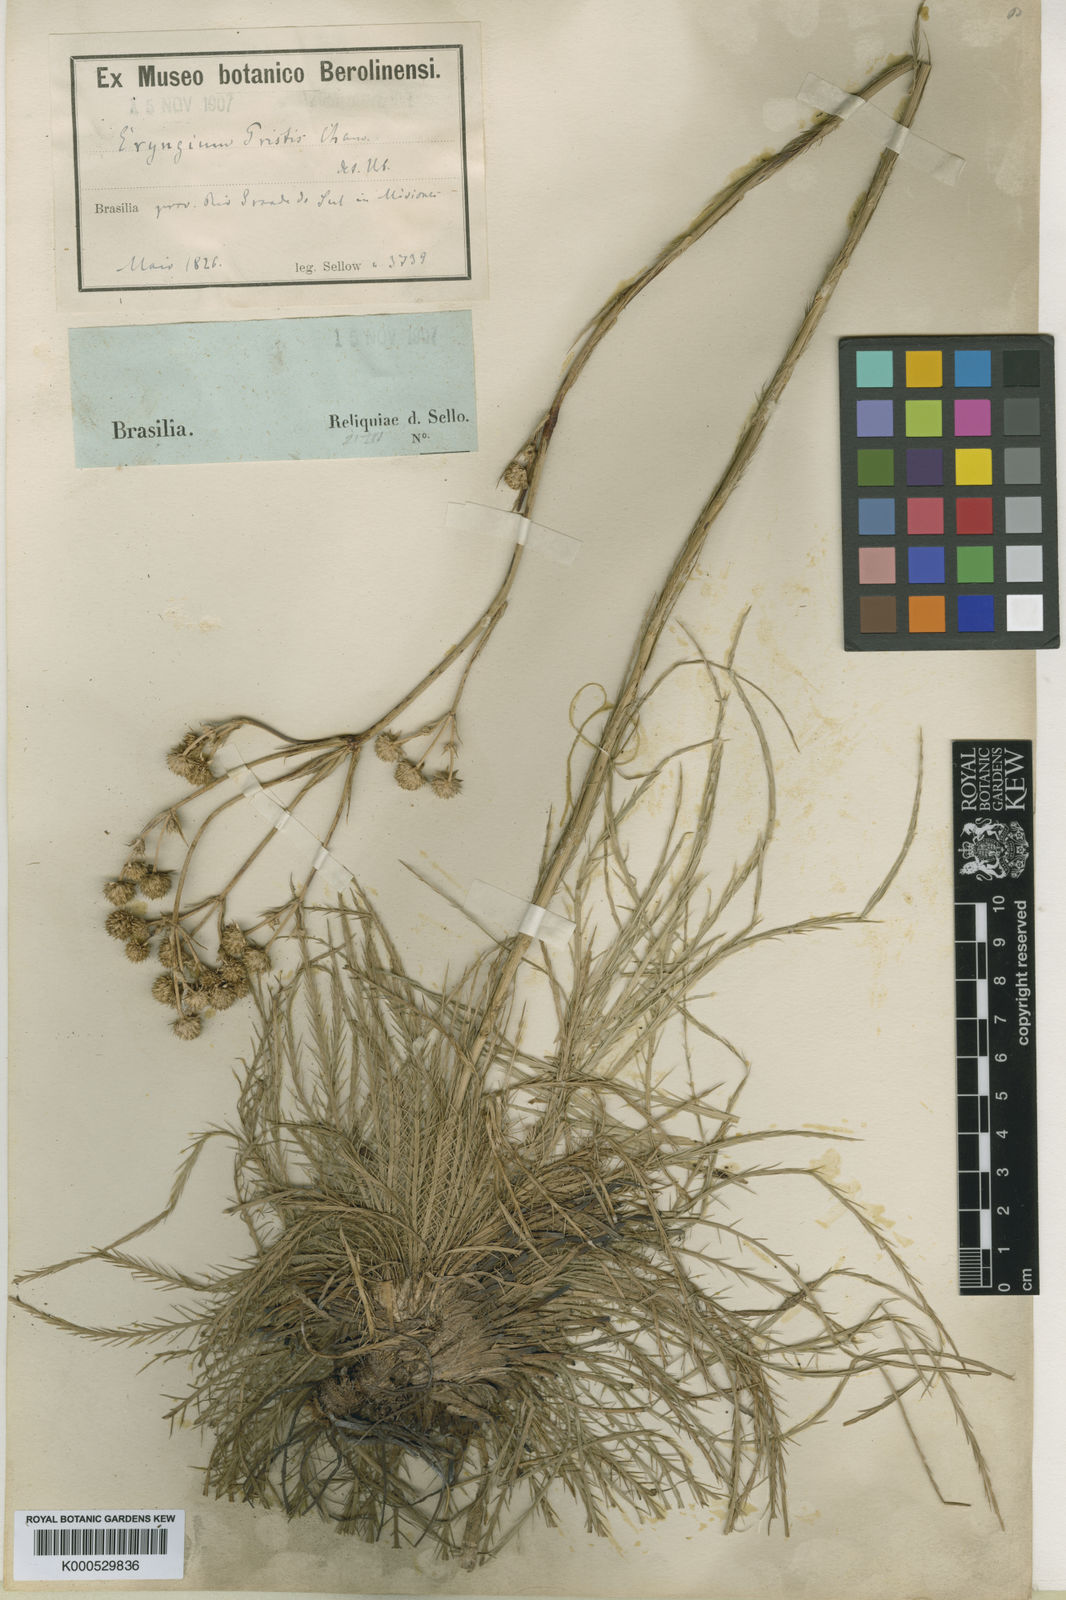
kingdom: Plantae
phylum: Tracheophyta
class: Magnoliopsida
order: Apiales
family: Apiaceae
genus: Eryngium
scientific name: Eryngium pristis
